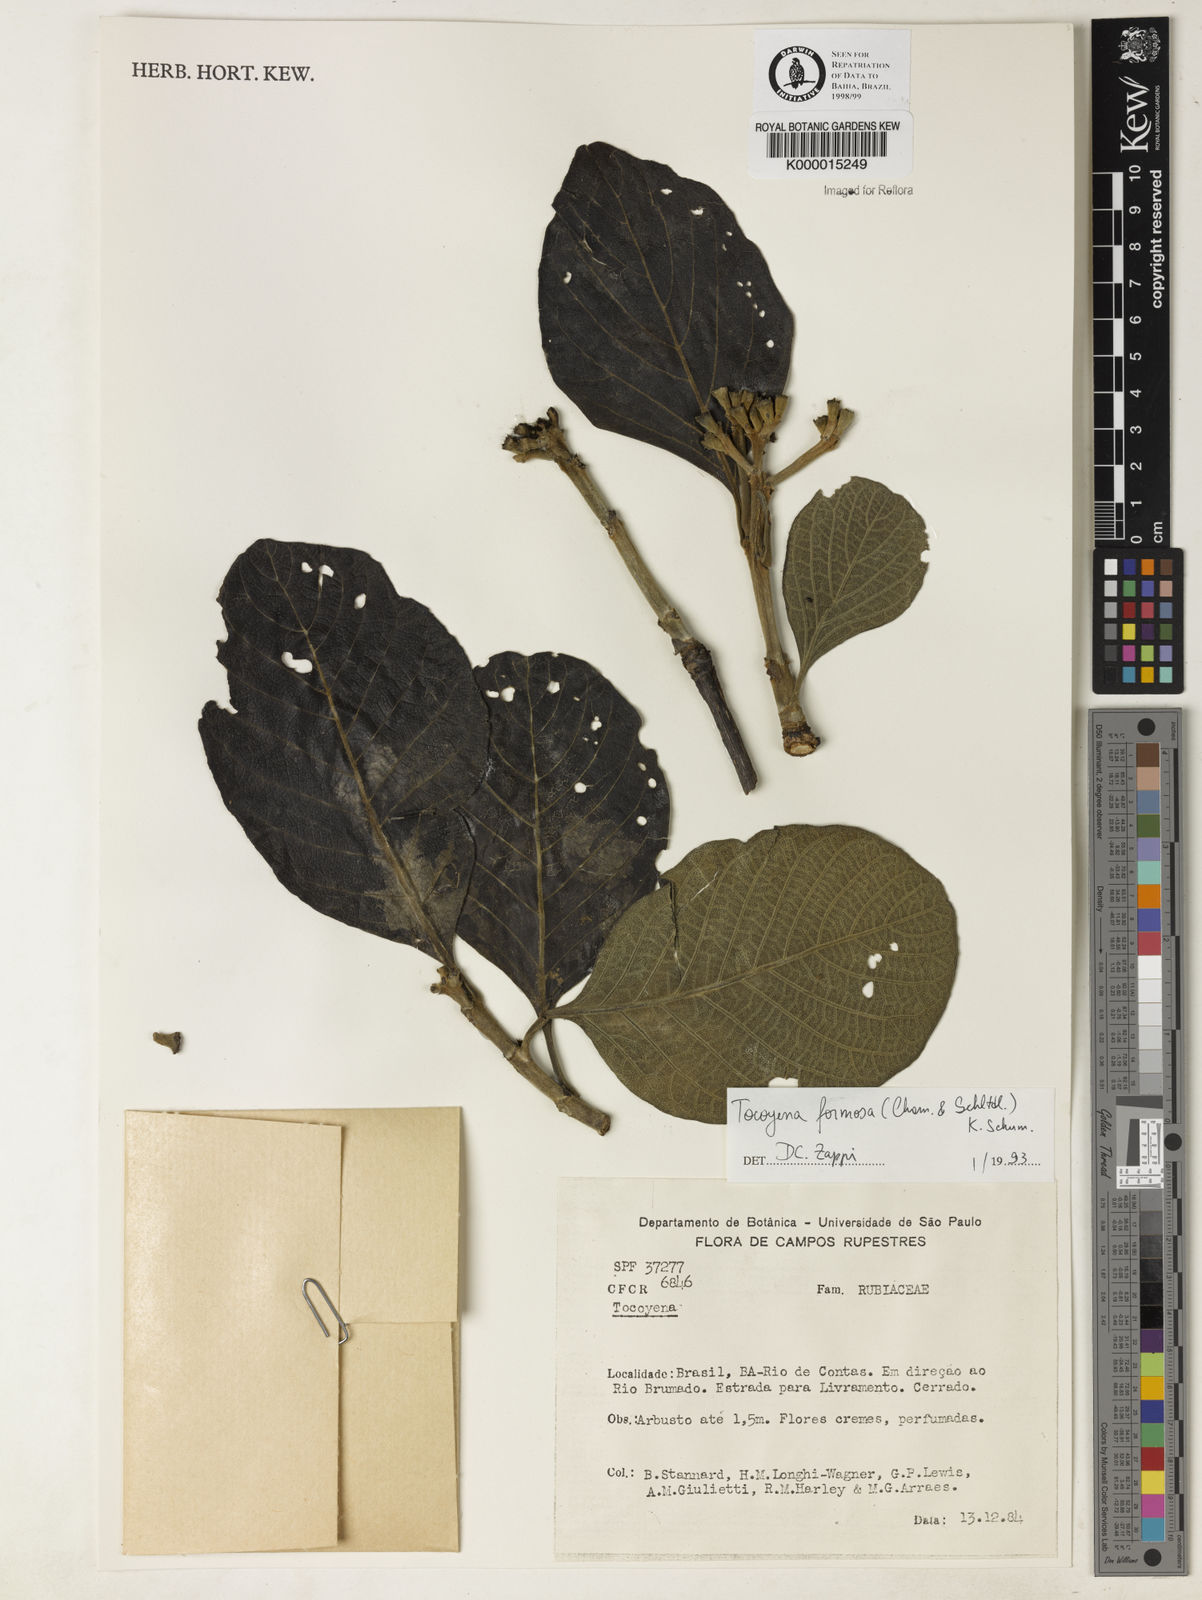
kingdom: Plantae
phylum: Tracheophyta
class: Magnoliopsida
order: Gentianales
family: Rubiaceae
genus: Tocoyena
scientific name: Tocoyena formosa
